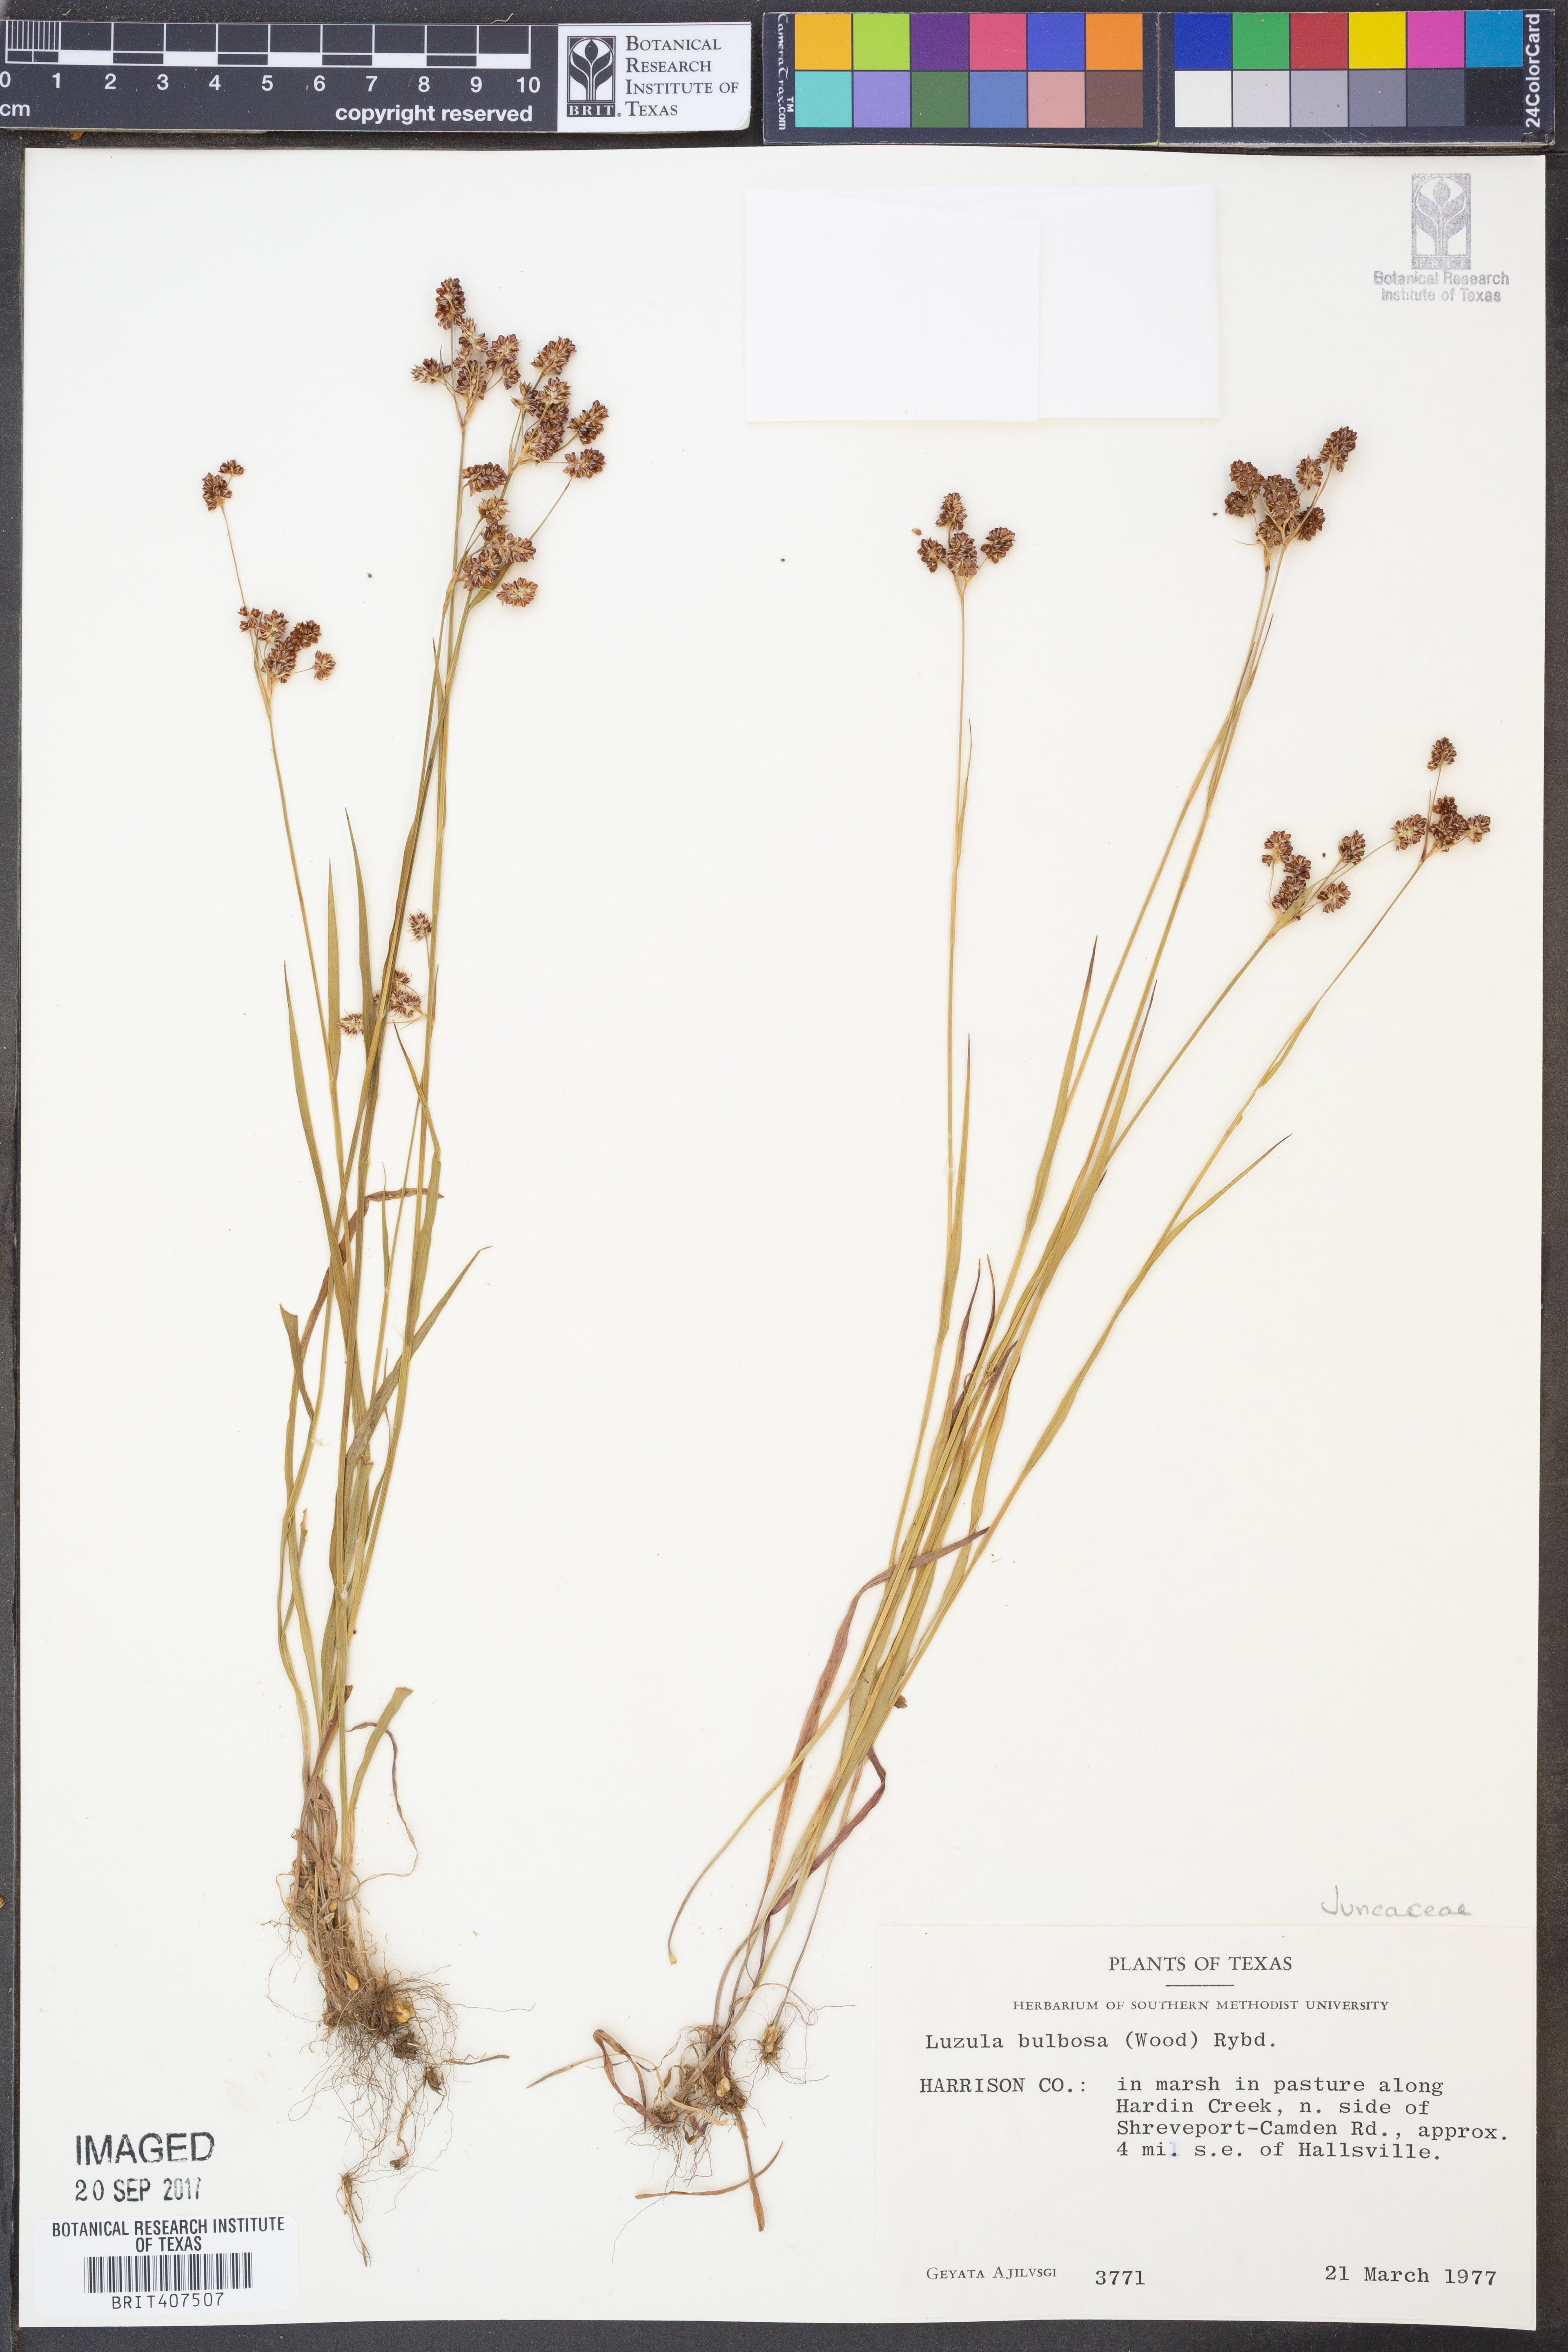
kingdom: Plantae
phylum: Tracheophyta
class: Liliopsida
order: Poales
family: Juncaceae
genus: Luzula
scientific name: Luzula bulbosa
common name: Bulbous woodrush
